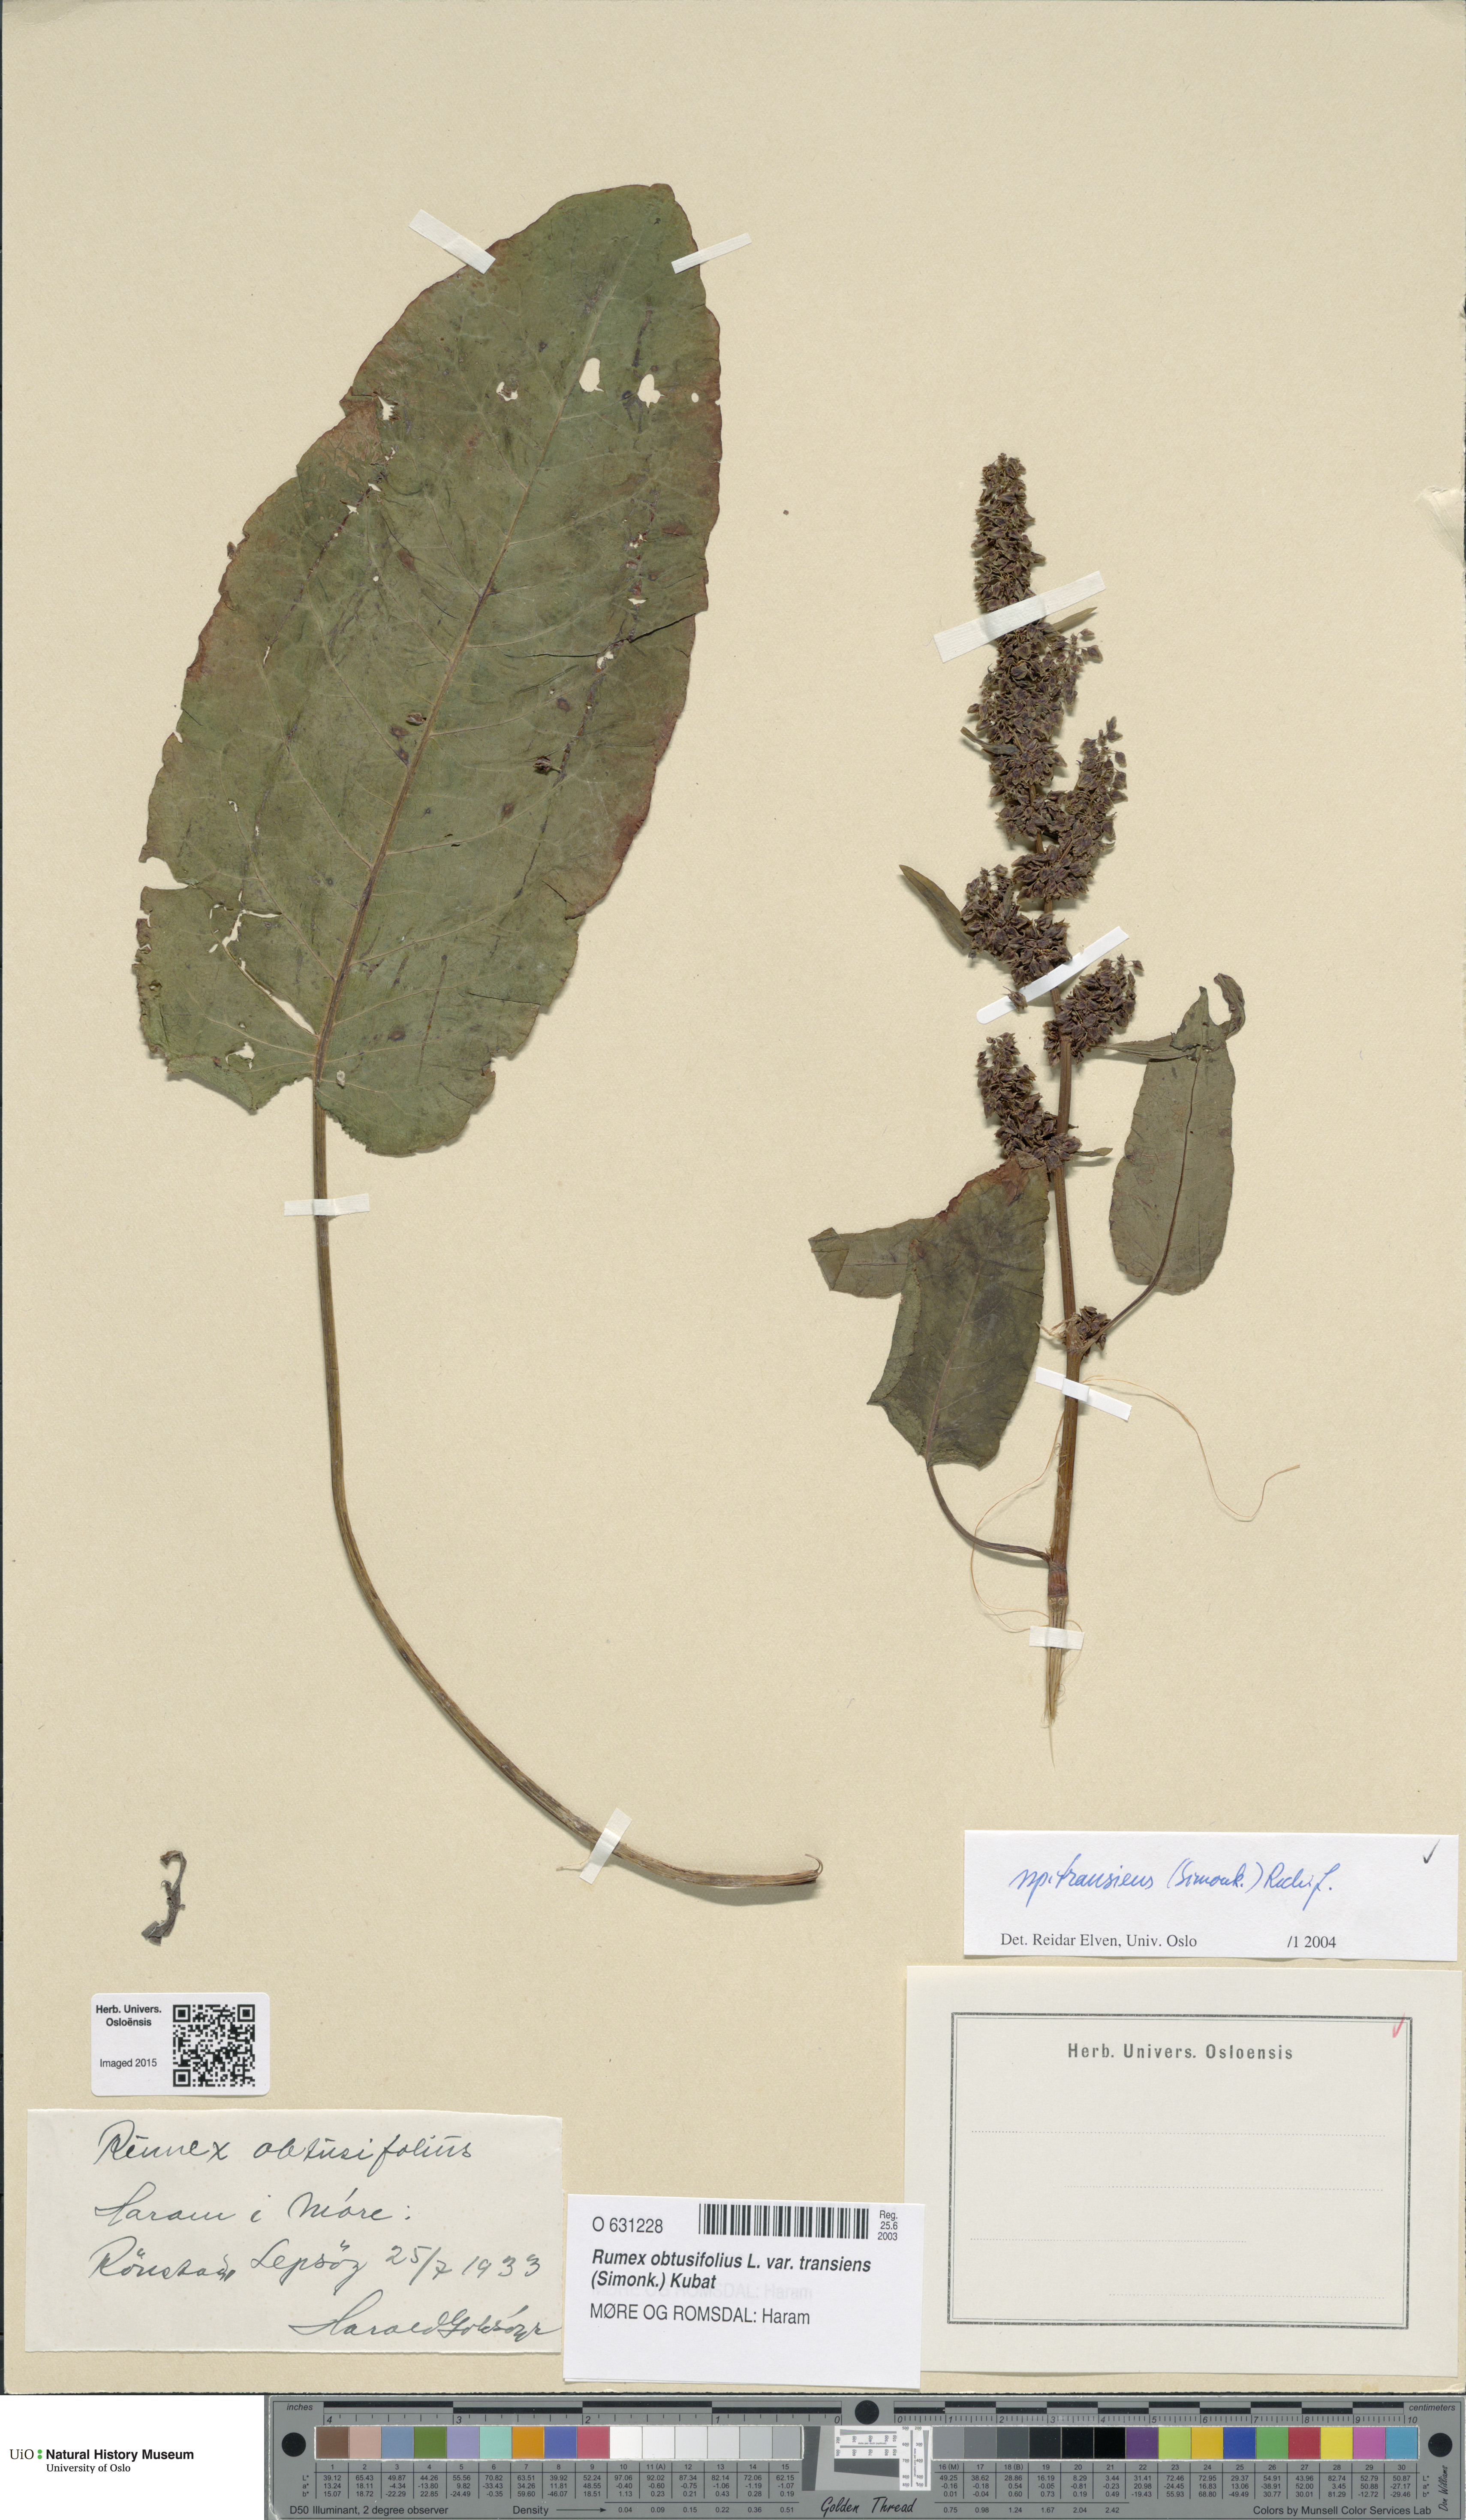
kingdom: Plantae
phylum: Tracheophyta
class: Magnoliopsida
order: Caryophyllales
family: Polygonaceae
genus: Rumex
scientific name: Rumex obtusifolius
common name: Bitter dock
